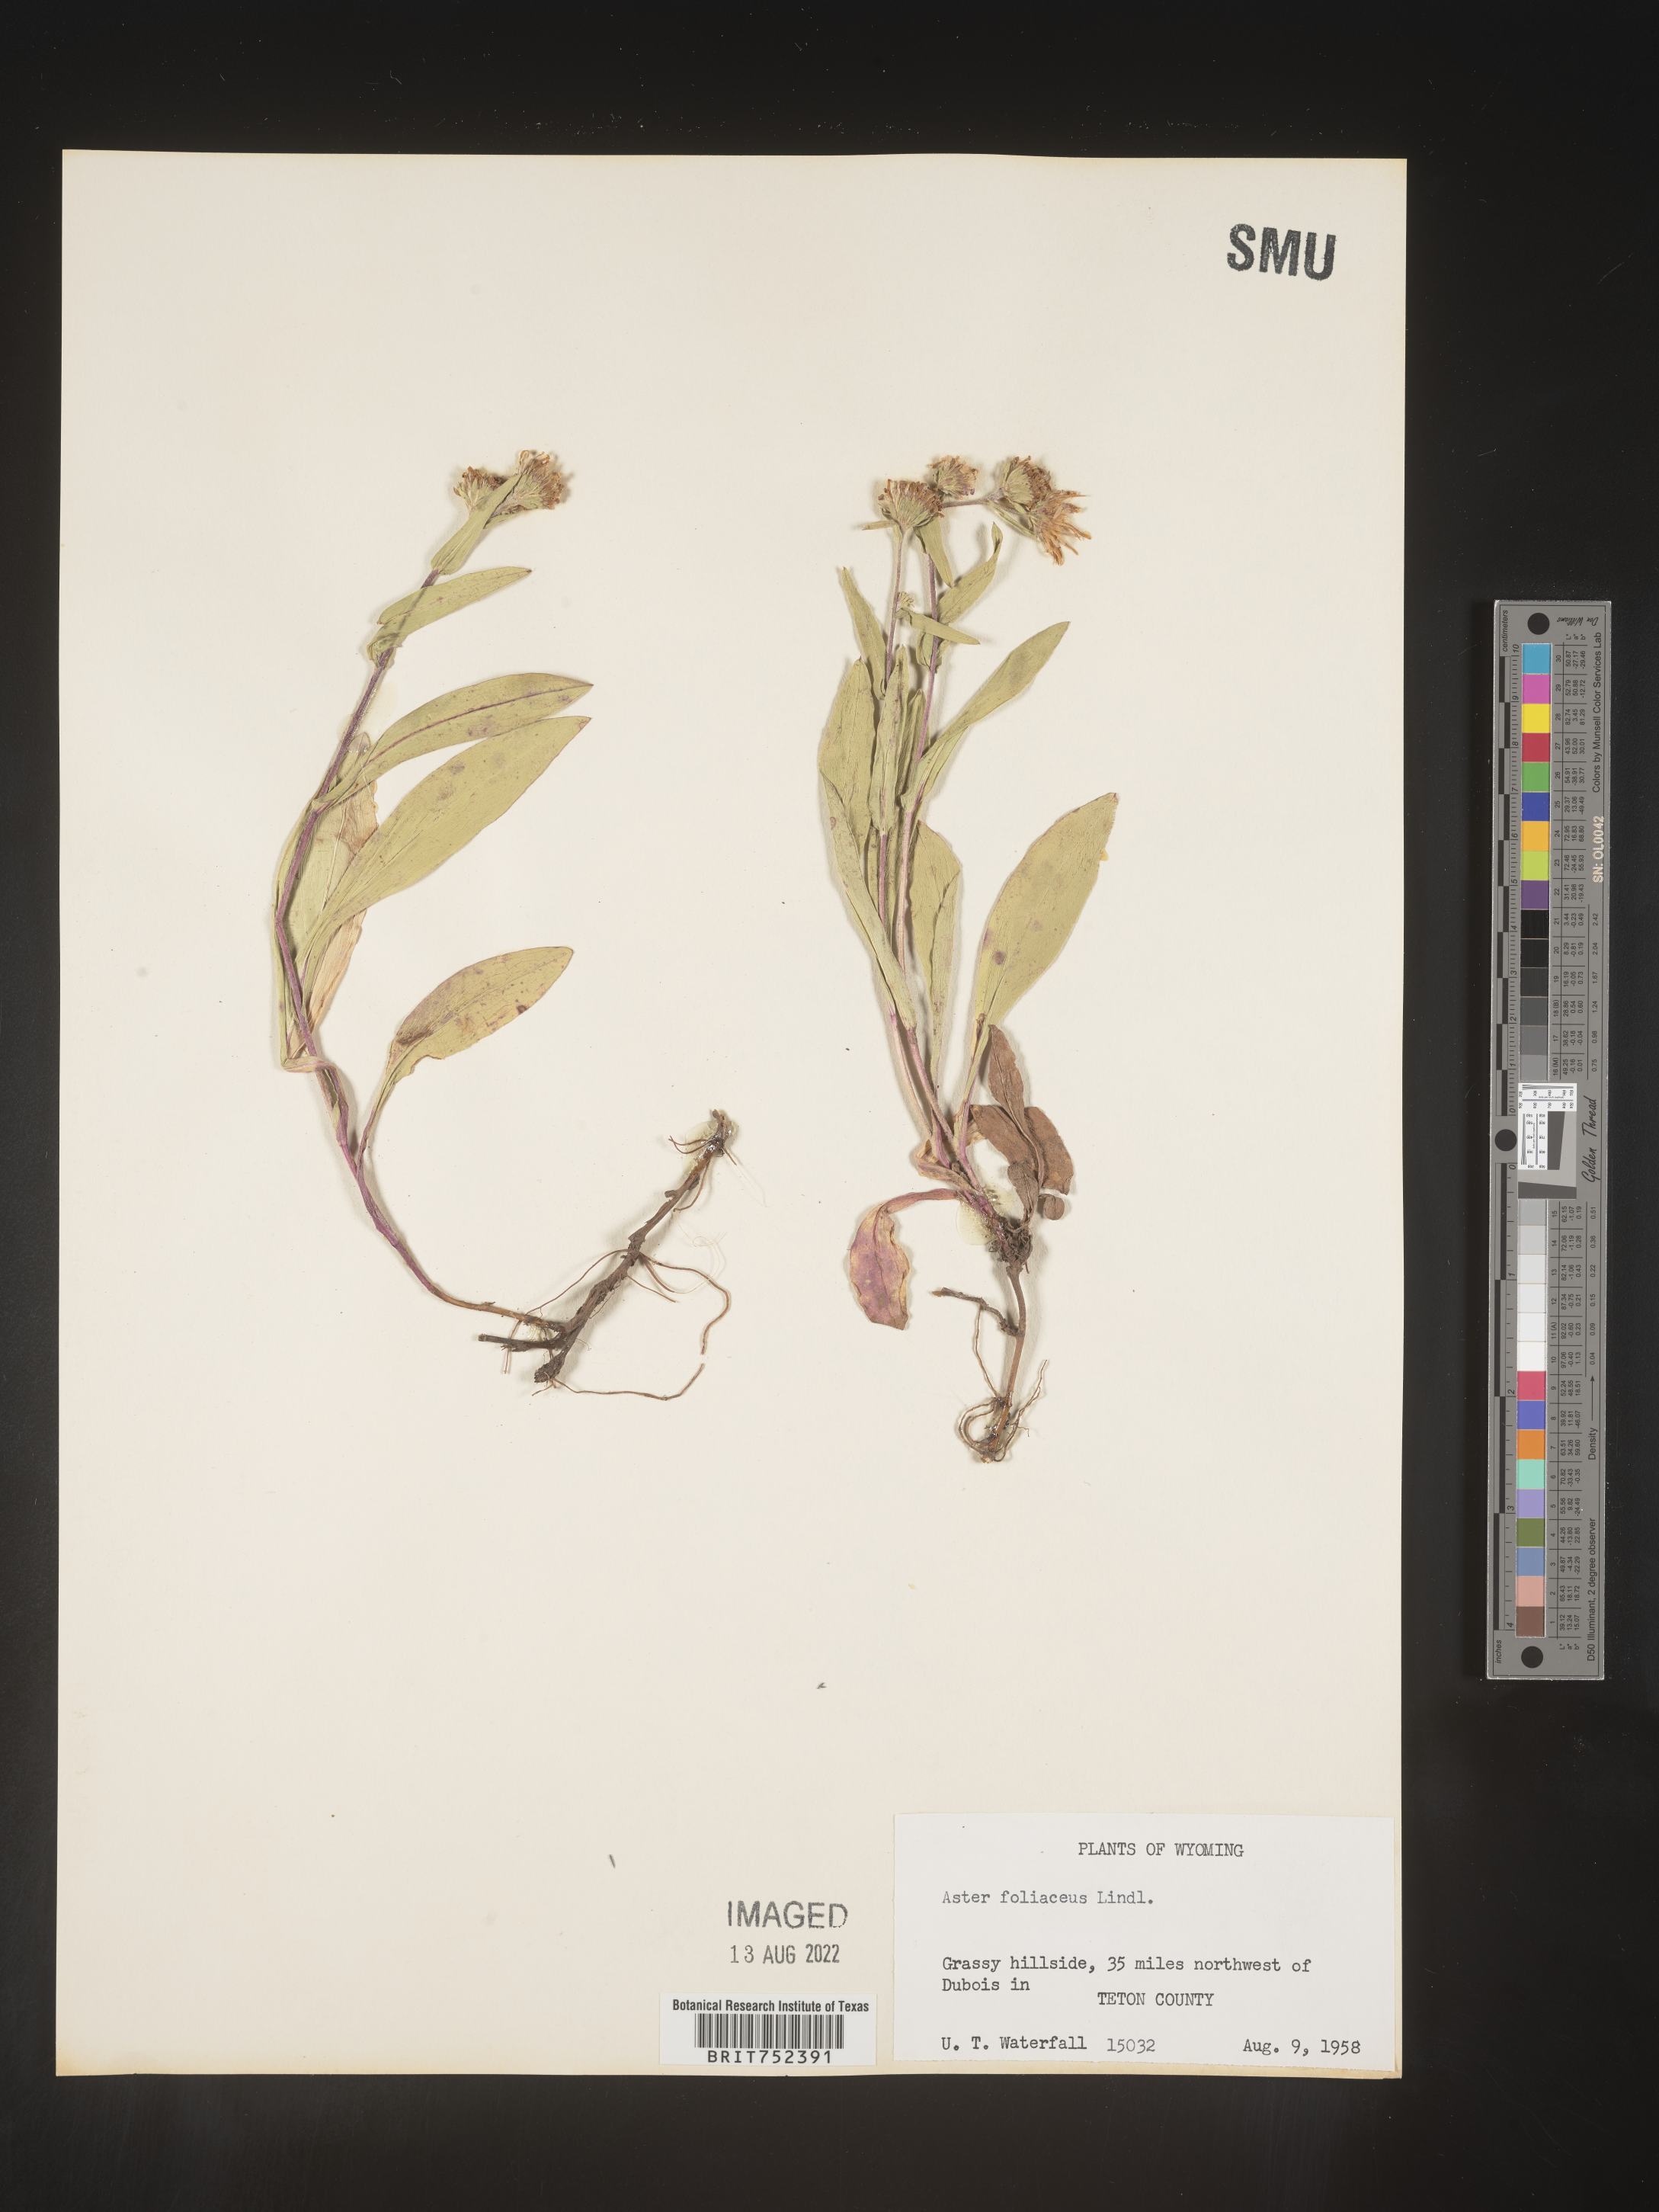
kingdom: Plantae
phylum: Tracheophyta
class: Magnoliopsida
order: Asterales
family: Asteraceae
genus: Symphyotrichum
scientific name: Symphyotrichum foliaceum
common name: Leafy aster
